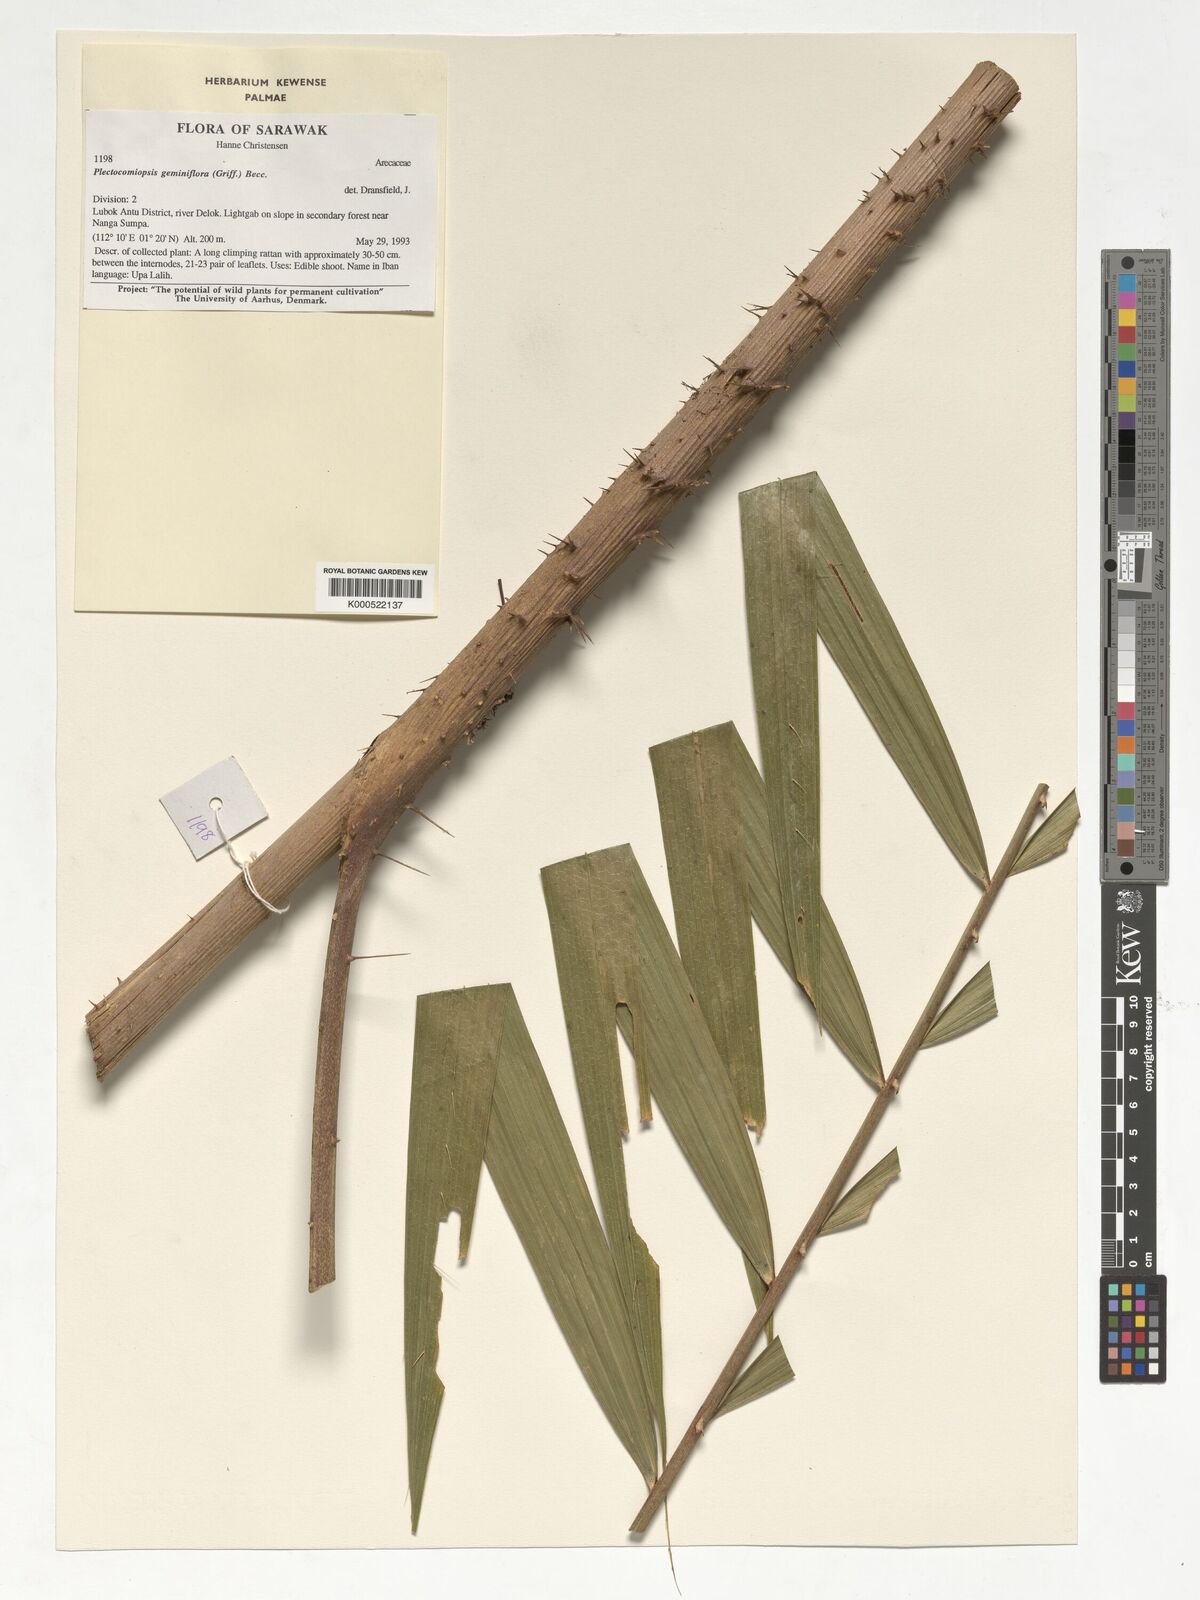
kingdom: Plantae
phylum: Tracheophyta
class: Liliopsida
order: Arecales
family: Arecaceae
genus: Plectocomiopsis
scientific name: Plectocomiopsis geminiflora
